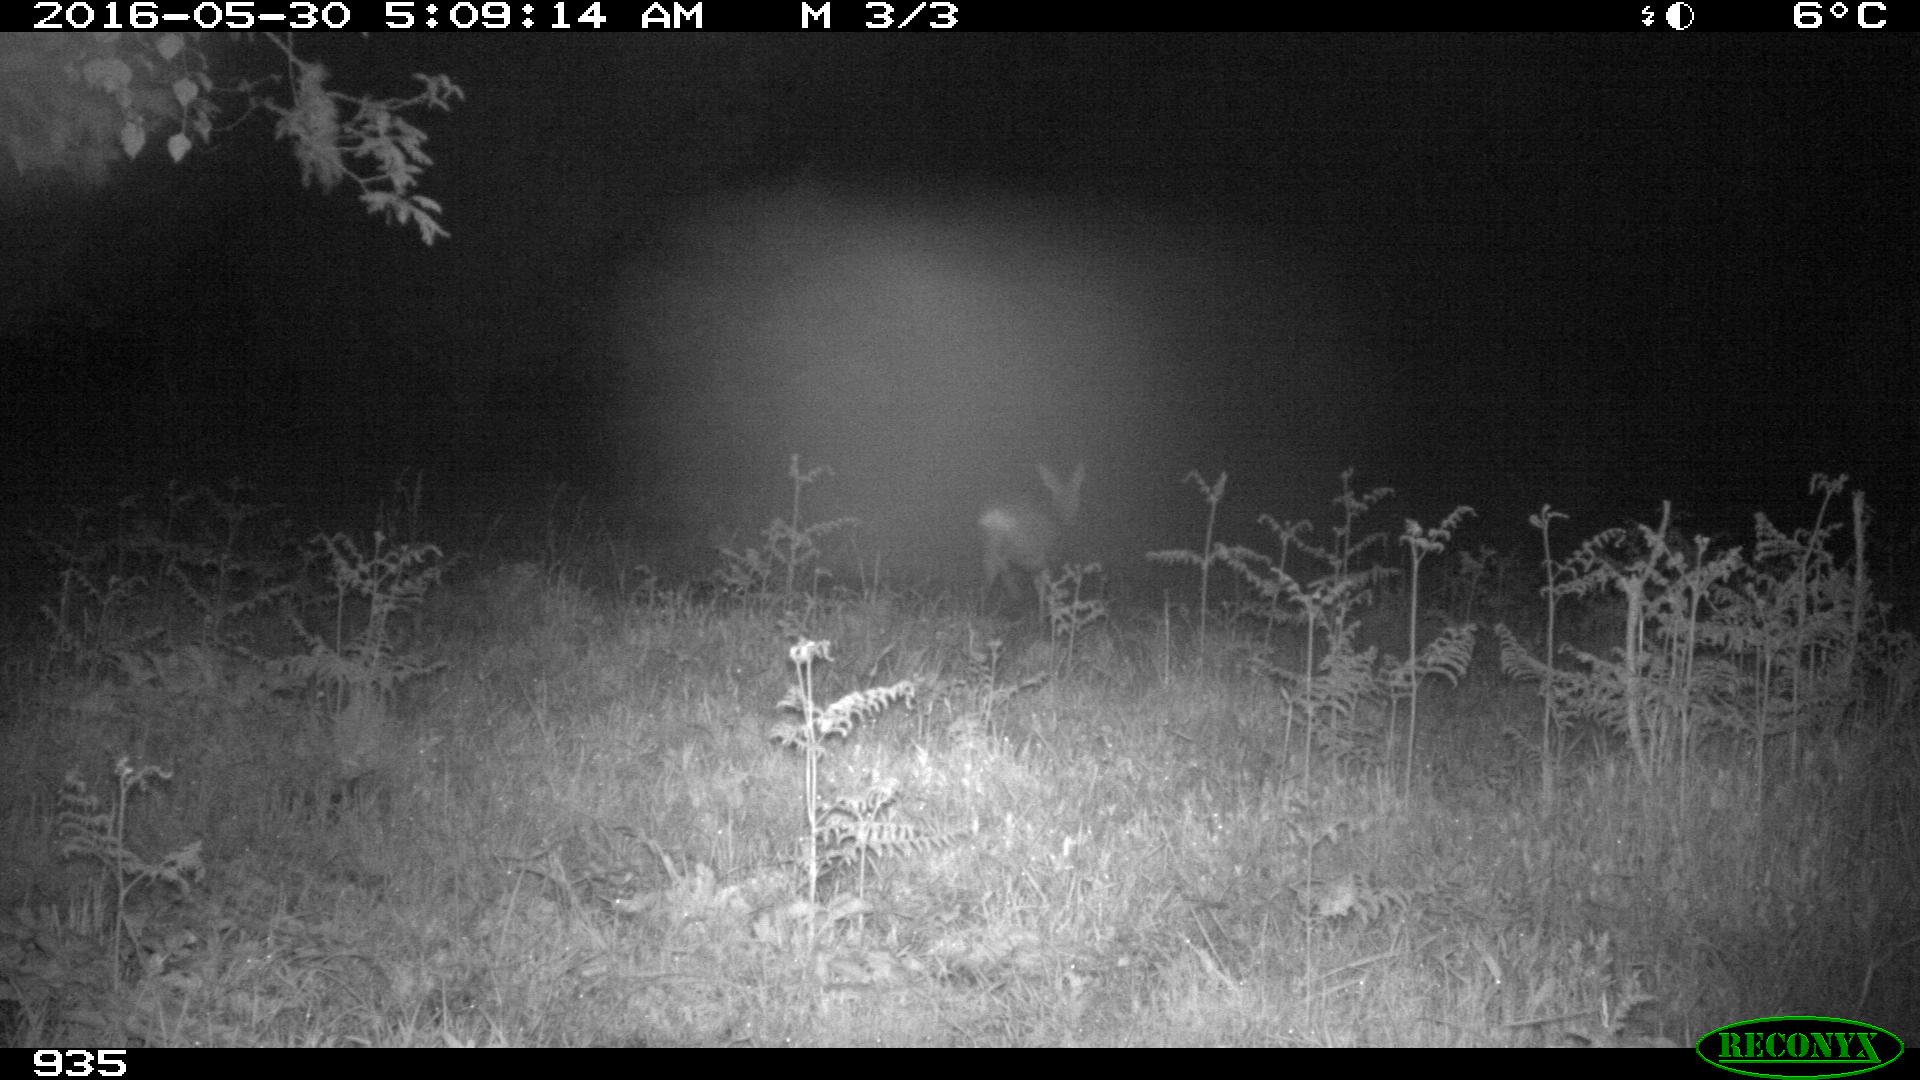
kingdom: Animalia
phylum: Chordata
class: Mammalia
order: Artiodactyla
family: Cervidae
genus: Capreolus
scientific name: Capreolus capreolus
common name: Western roe deer
